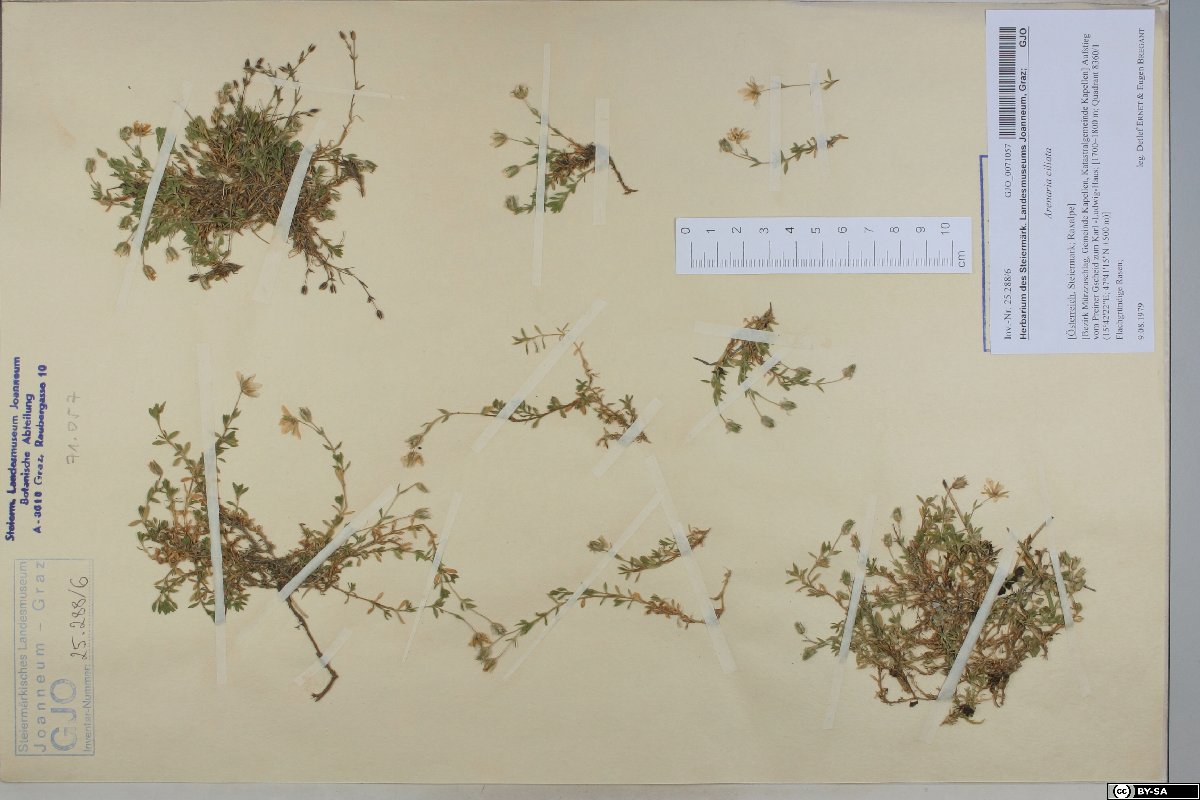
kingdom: Plantae
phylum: Tracheophyta
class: Magnoliopsida
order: Caryophyllales
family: Caryophyllaceae
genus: Arenaria
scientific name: Arenaria ciliata
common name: Fringed sandwort
